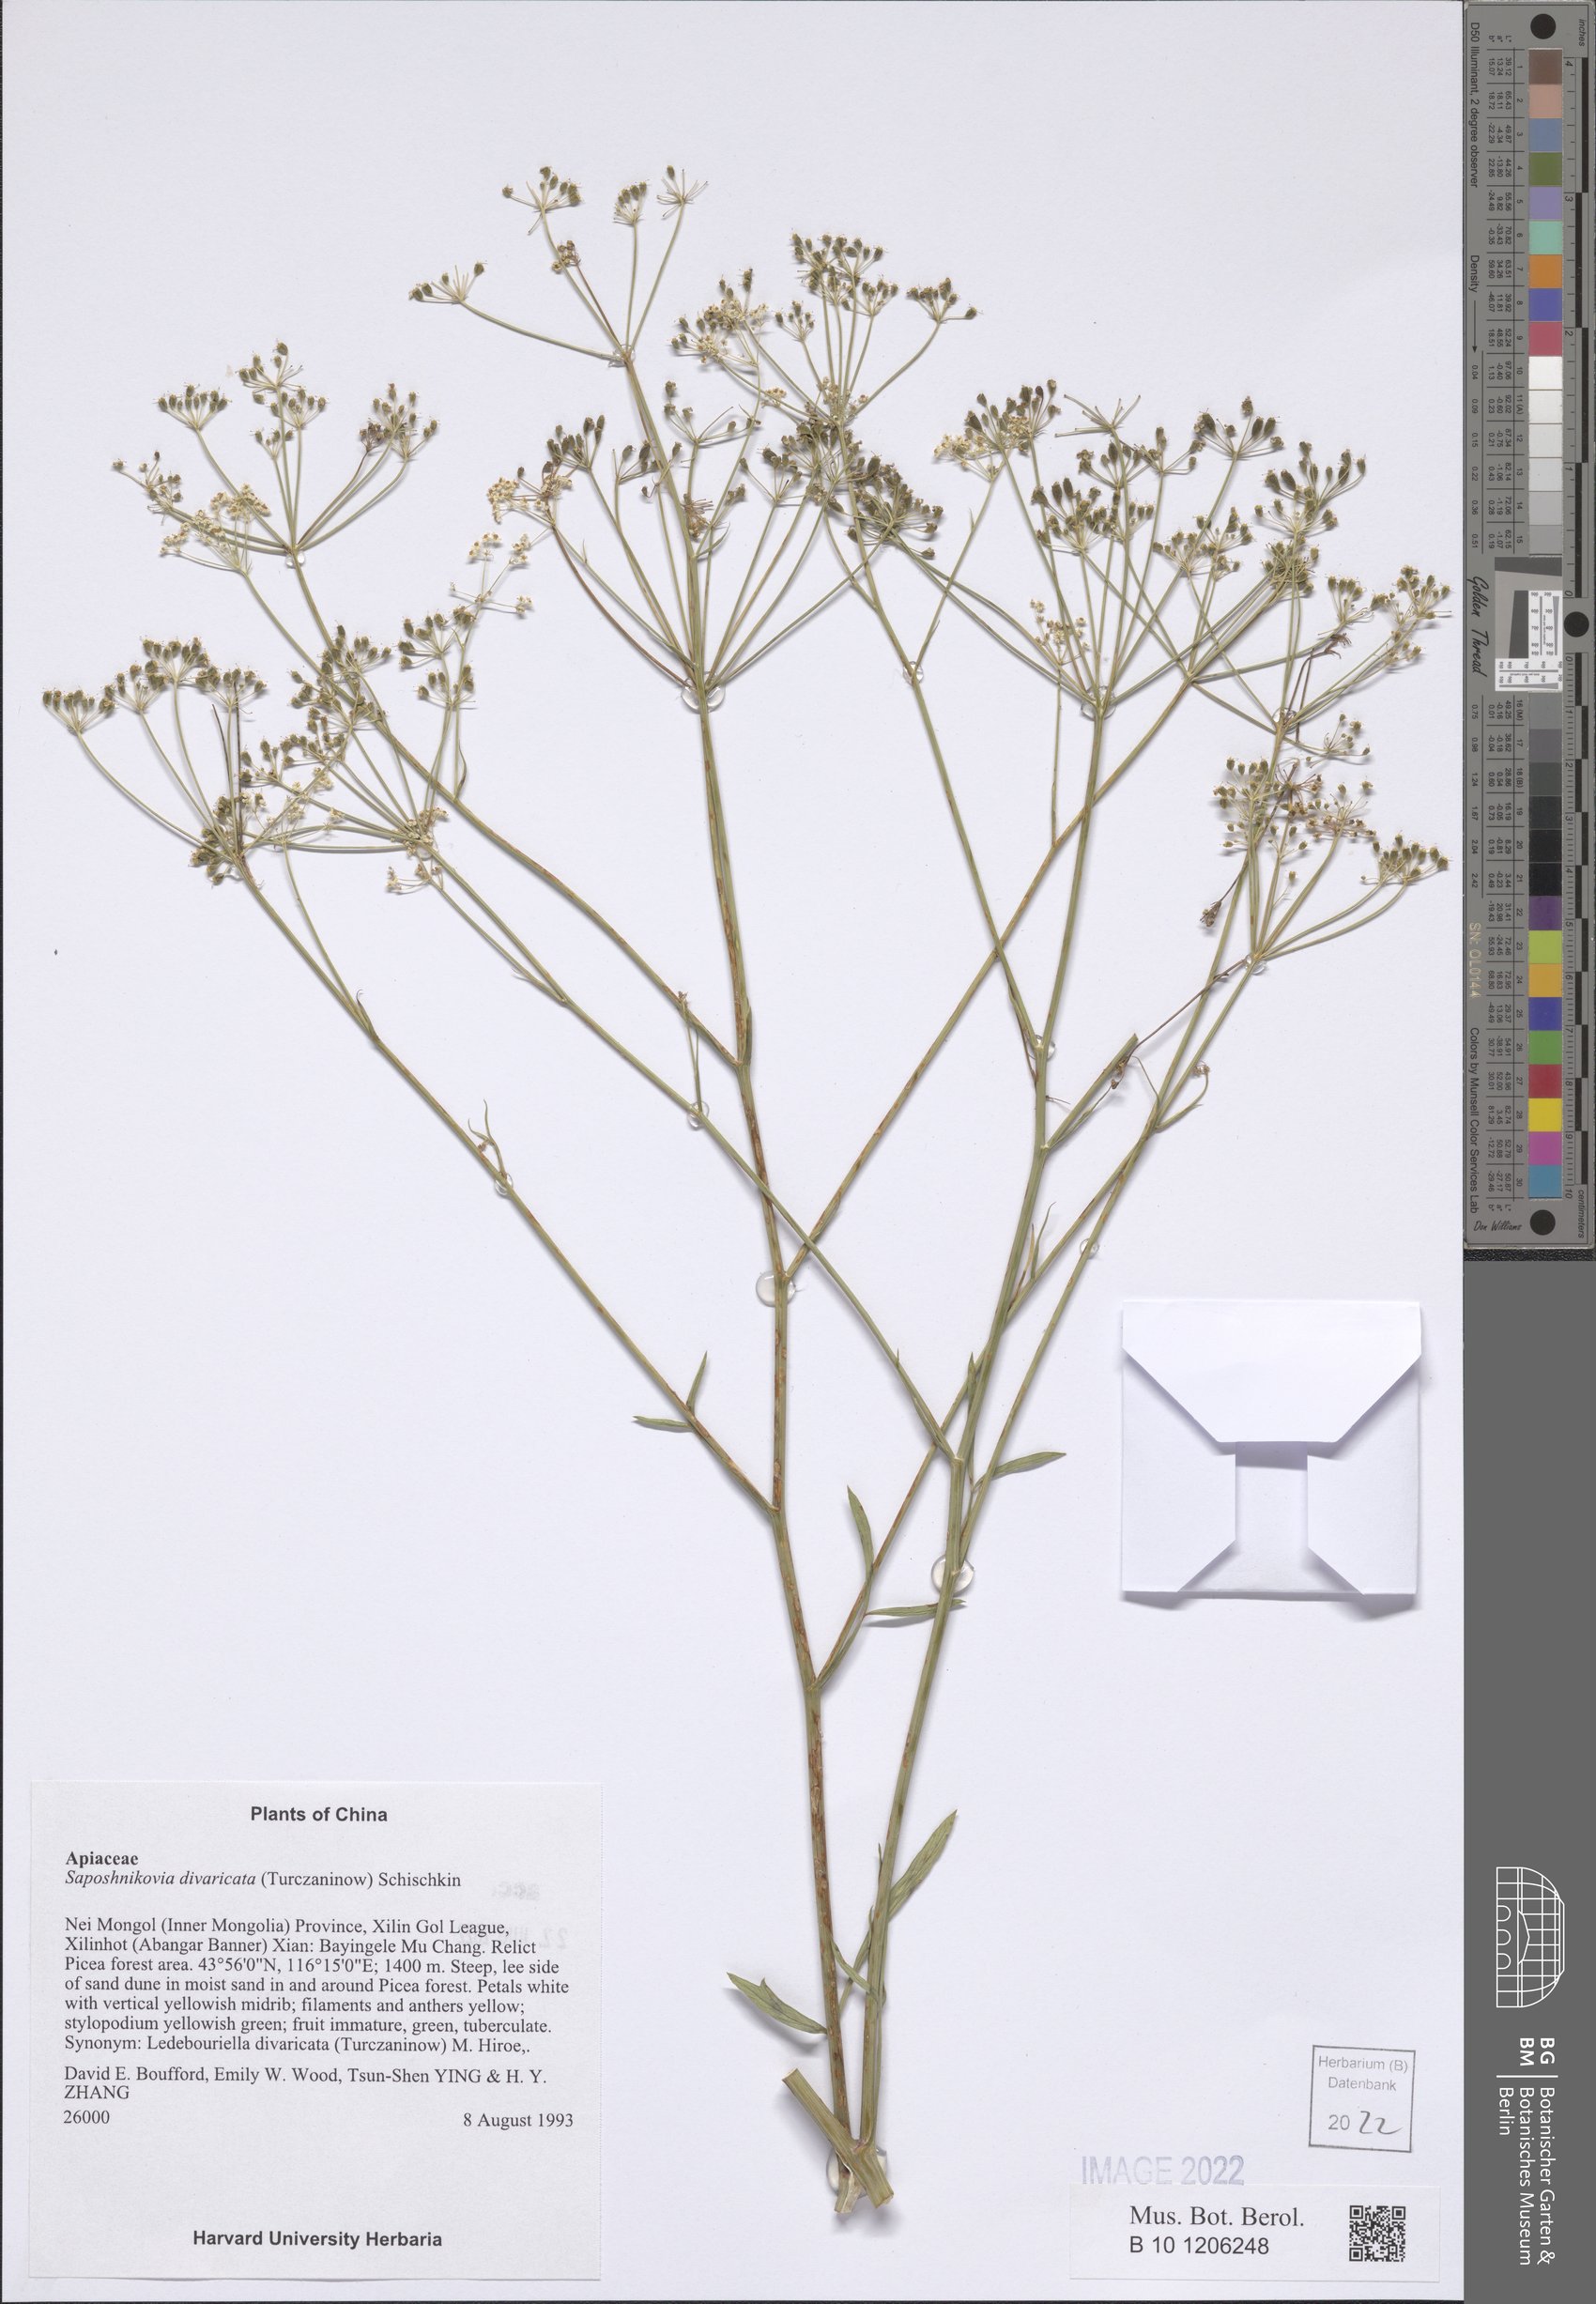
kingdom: Plantae
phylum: Tracheophyta
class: Magnoliopsida
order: Apiales
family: Apiaceae
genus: Saposhnikovia
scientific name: Saposhnikovia divaricata
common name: Siler
